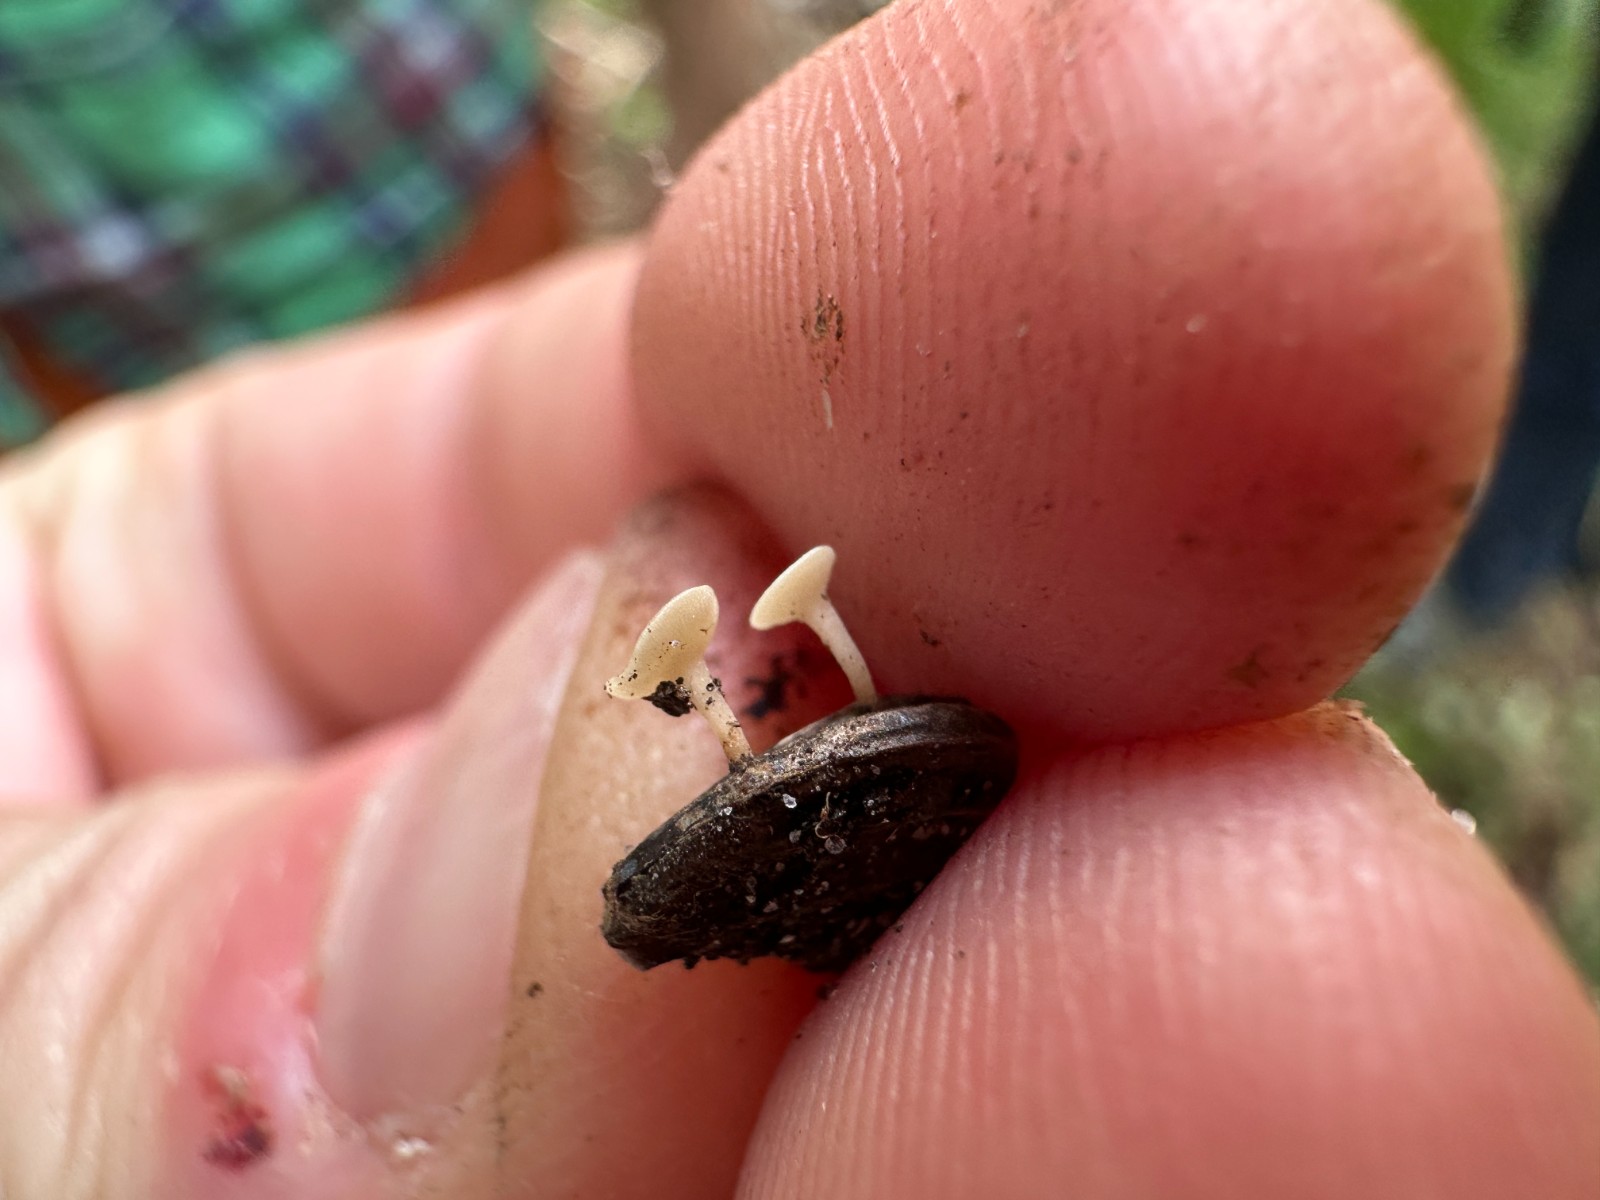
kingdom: Fungi
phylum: Ascomycota
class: Leotiomycetes
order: Helotiales
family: Helotiaceae
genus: Hymenoscyphus
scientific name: Hymenoscyphus
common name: stilkskive
